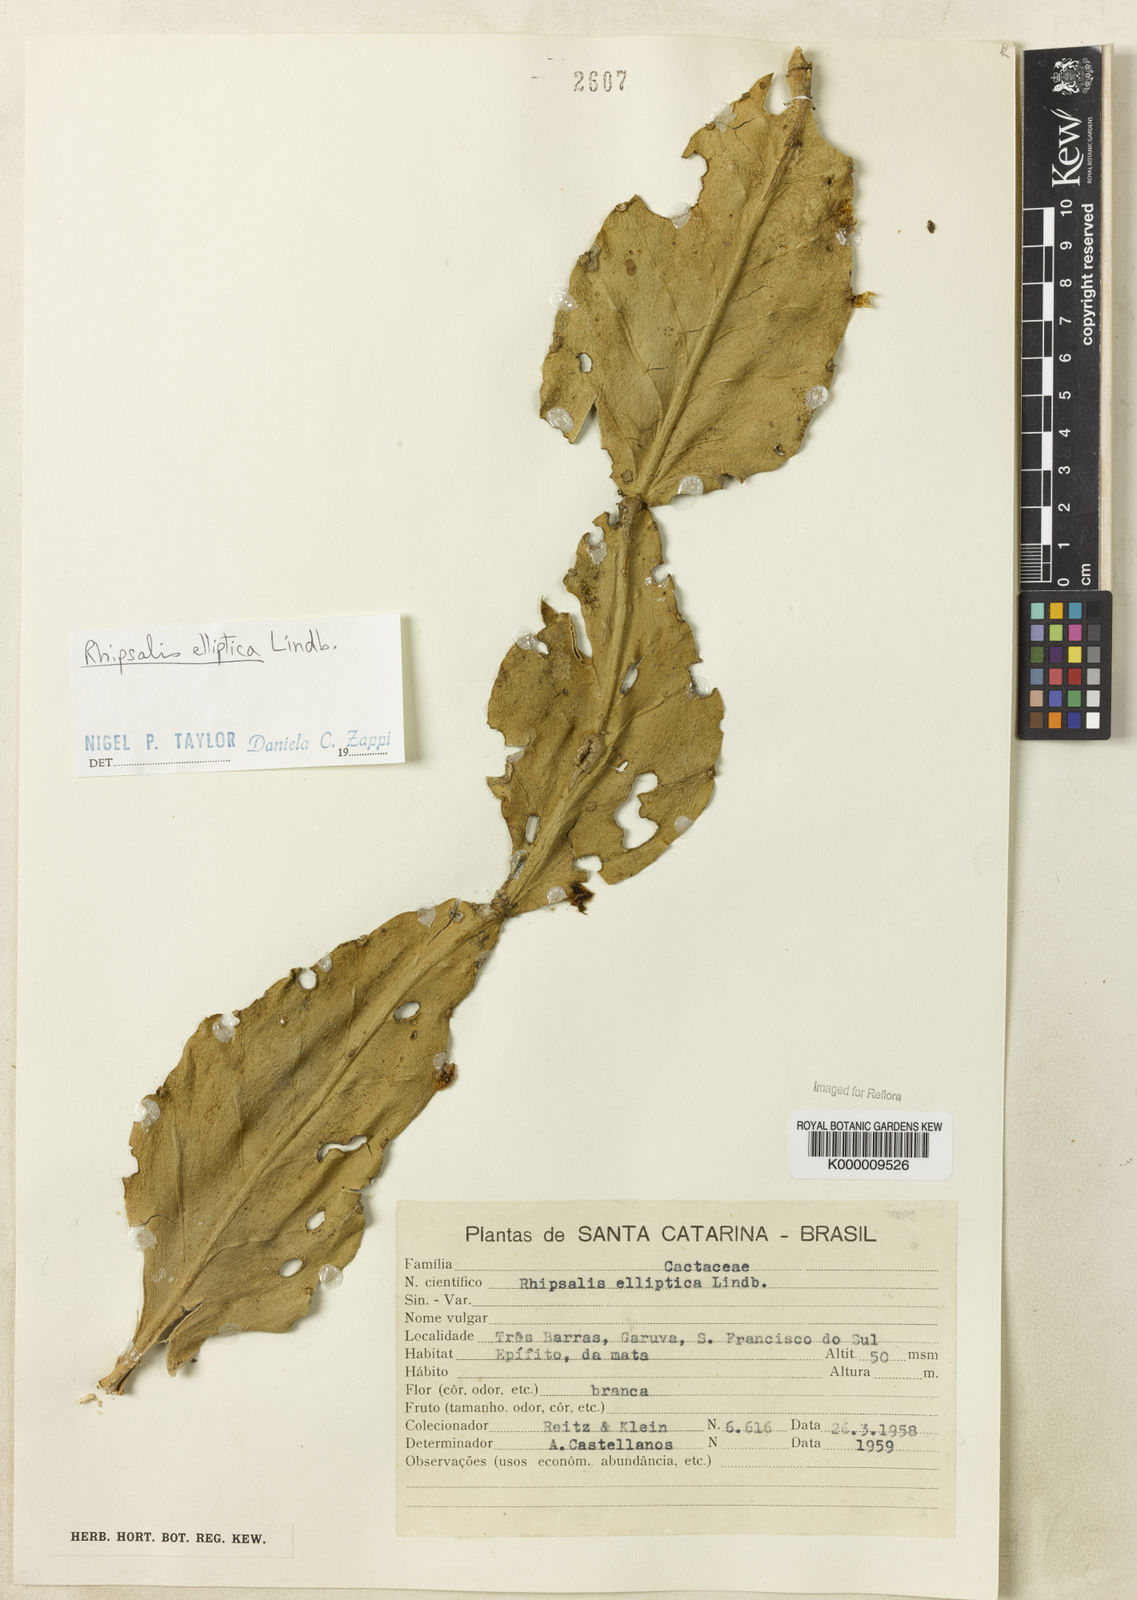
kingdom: Plantae
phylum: Tracheophyta
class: Magnoliopsida
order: Caryophyllales
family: Cactaceae
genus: Rhipsalis
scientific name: Rhipsalis elliptica
